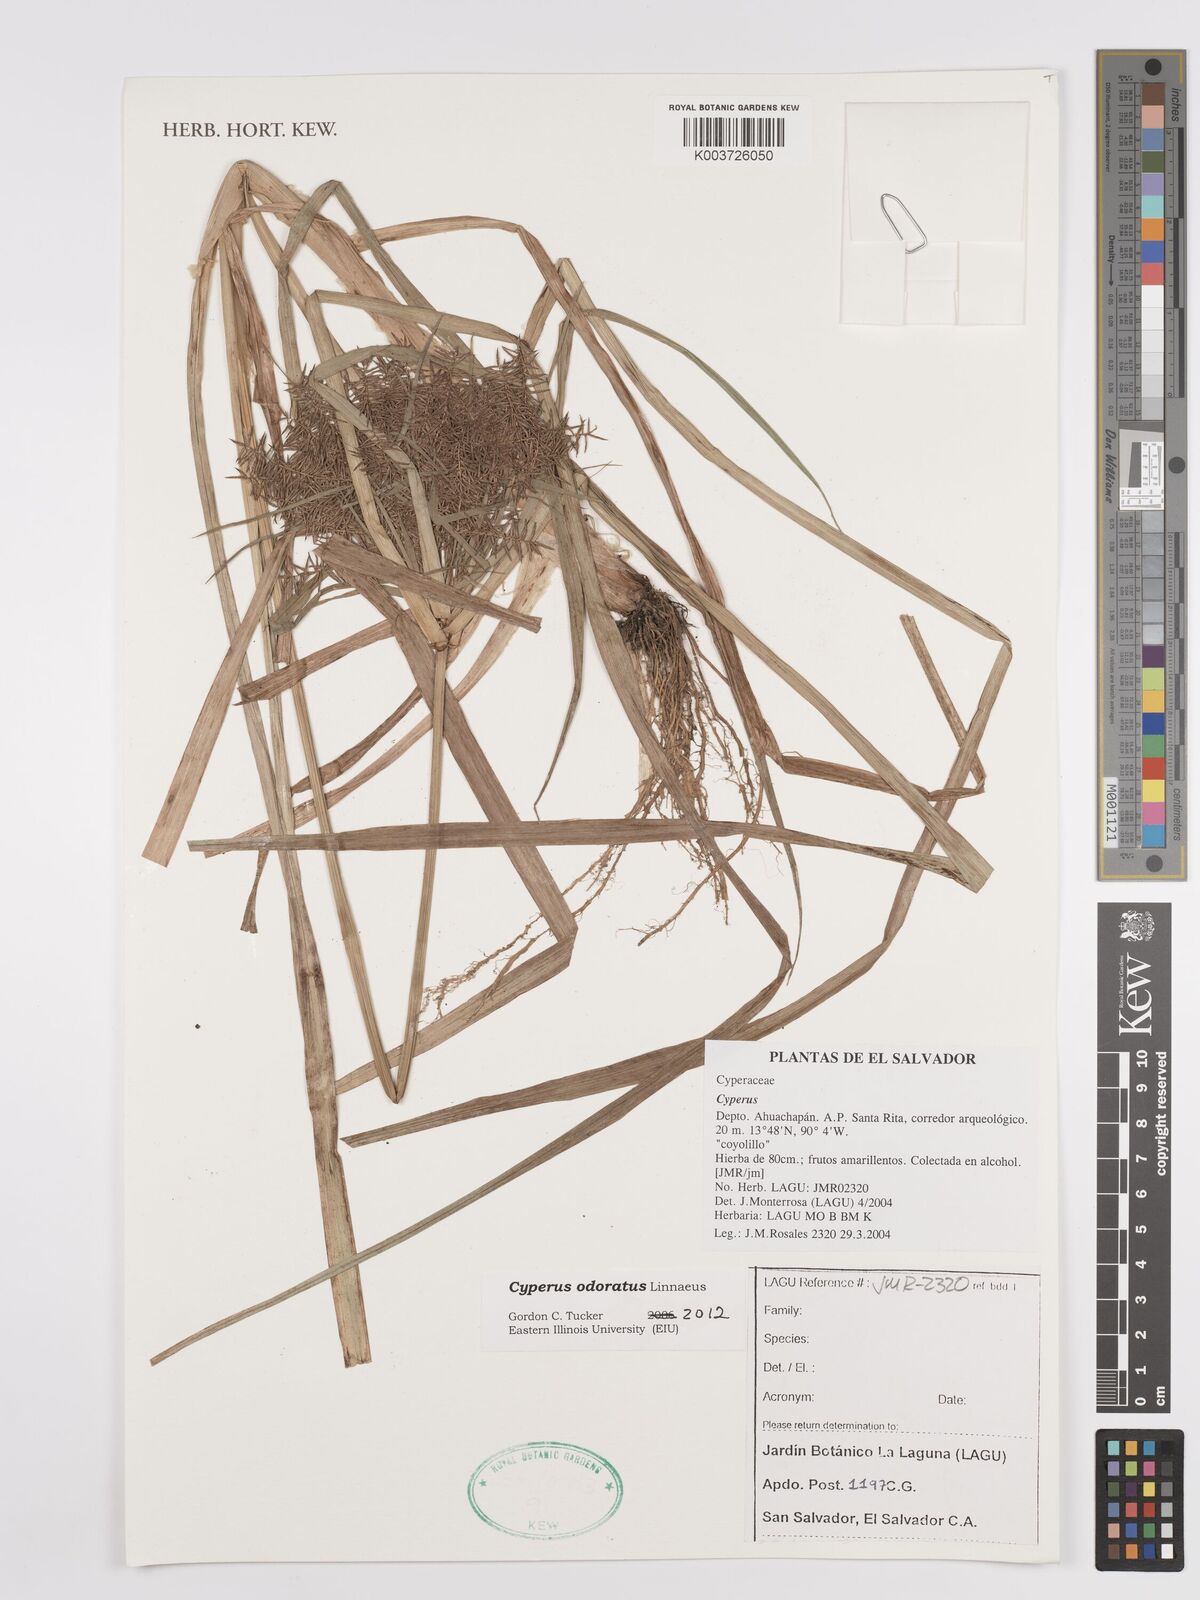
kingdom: Plantae
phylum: Tracheophyta
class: Liliopsida
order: Poales
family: Cyperaceae
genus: Cyperus
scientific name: Cyperus odoratus
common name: Fragrant flatsedge
